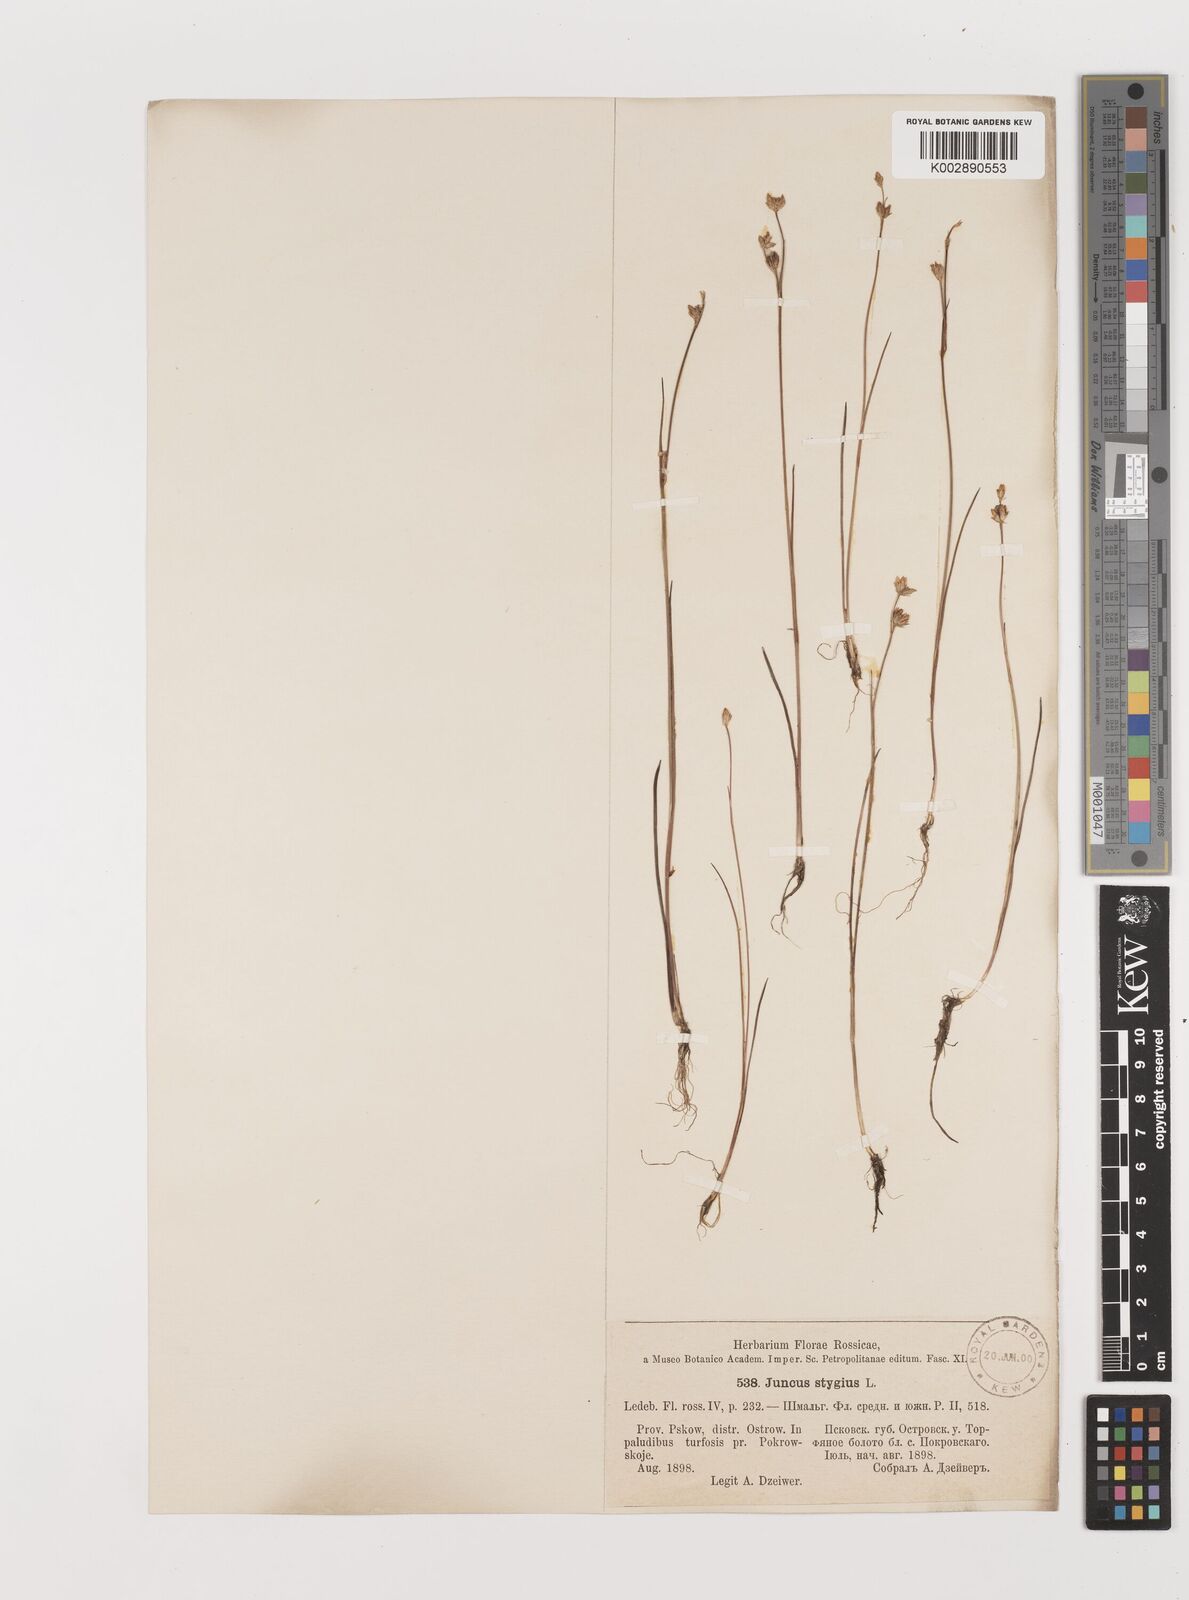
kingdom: Plantae
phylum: Tracheophyta
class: Liliopsida
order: Poales
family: Juncaceae
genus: Juncus
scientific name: Juncus stygius
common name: Bog rush
